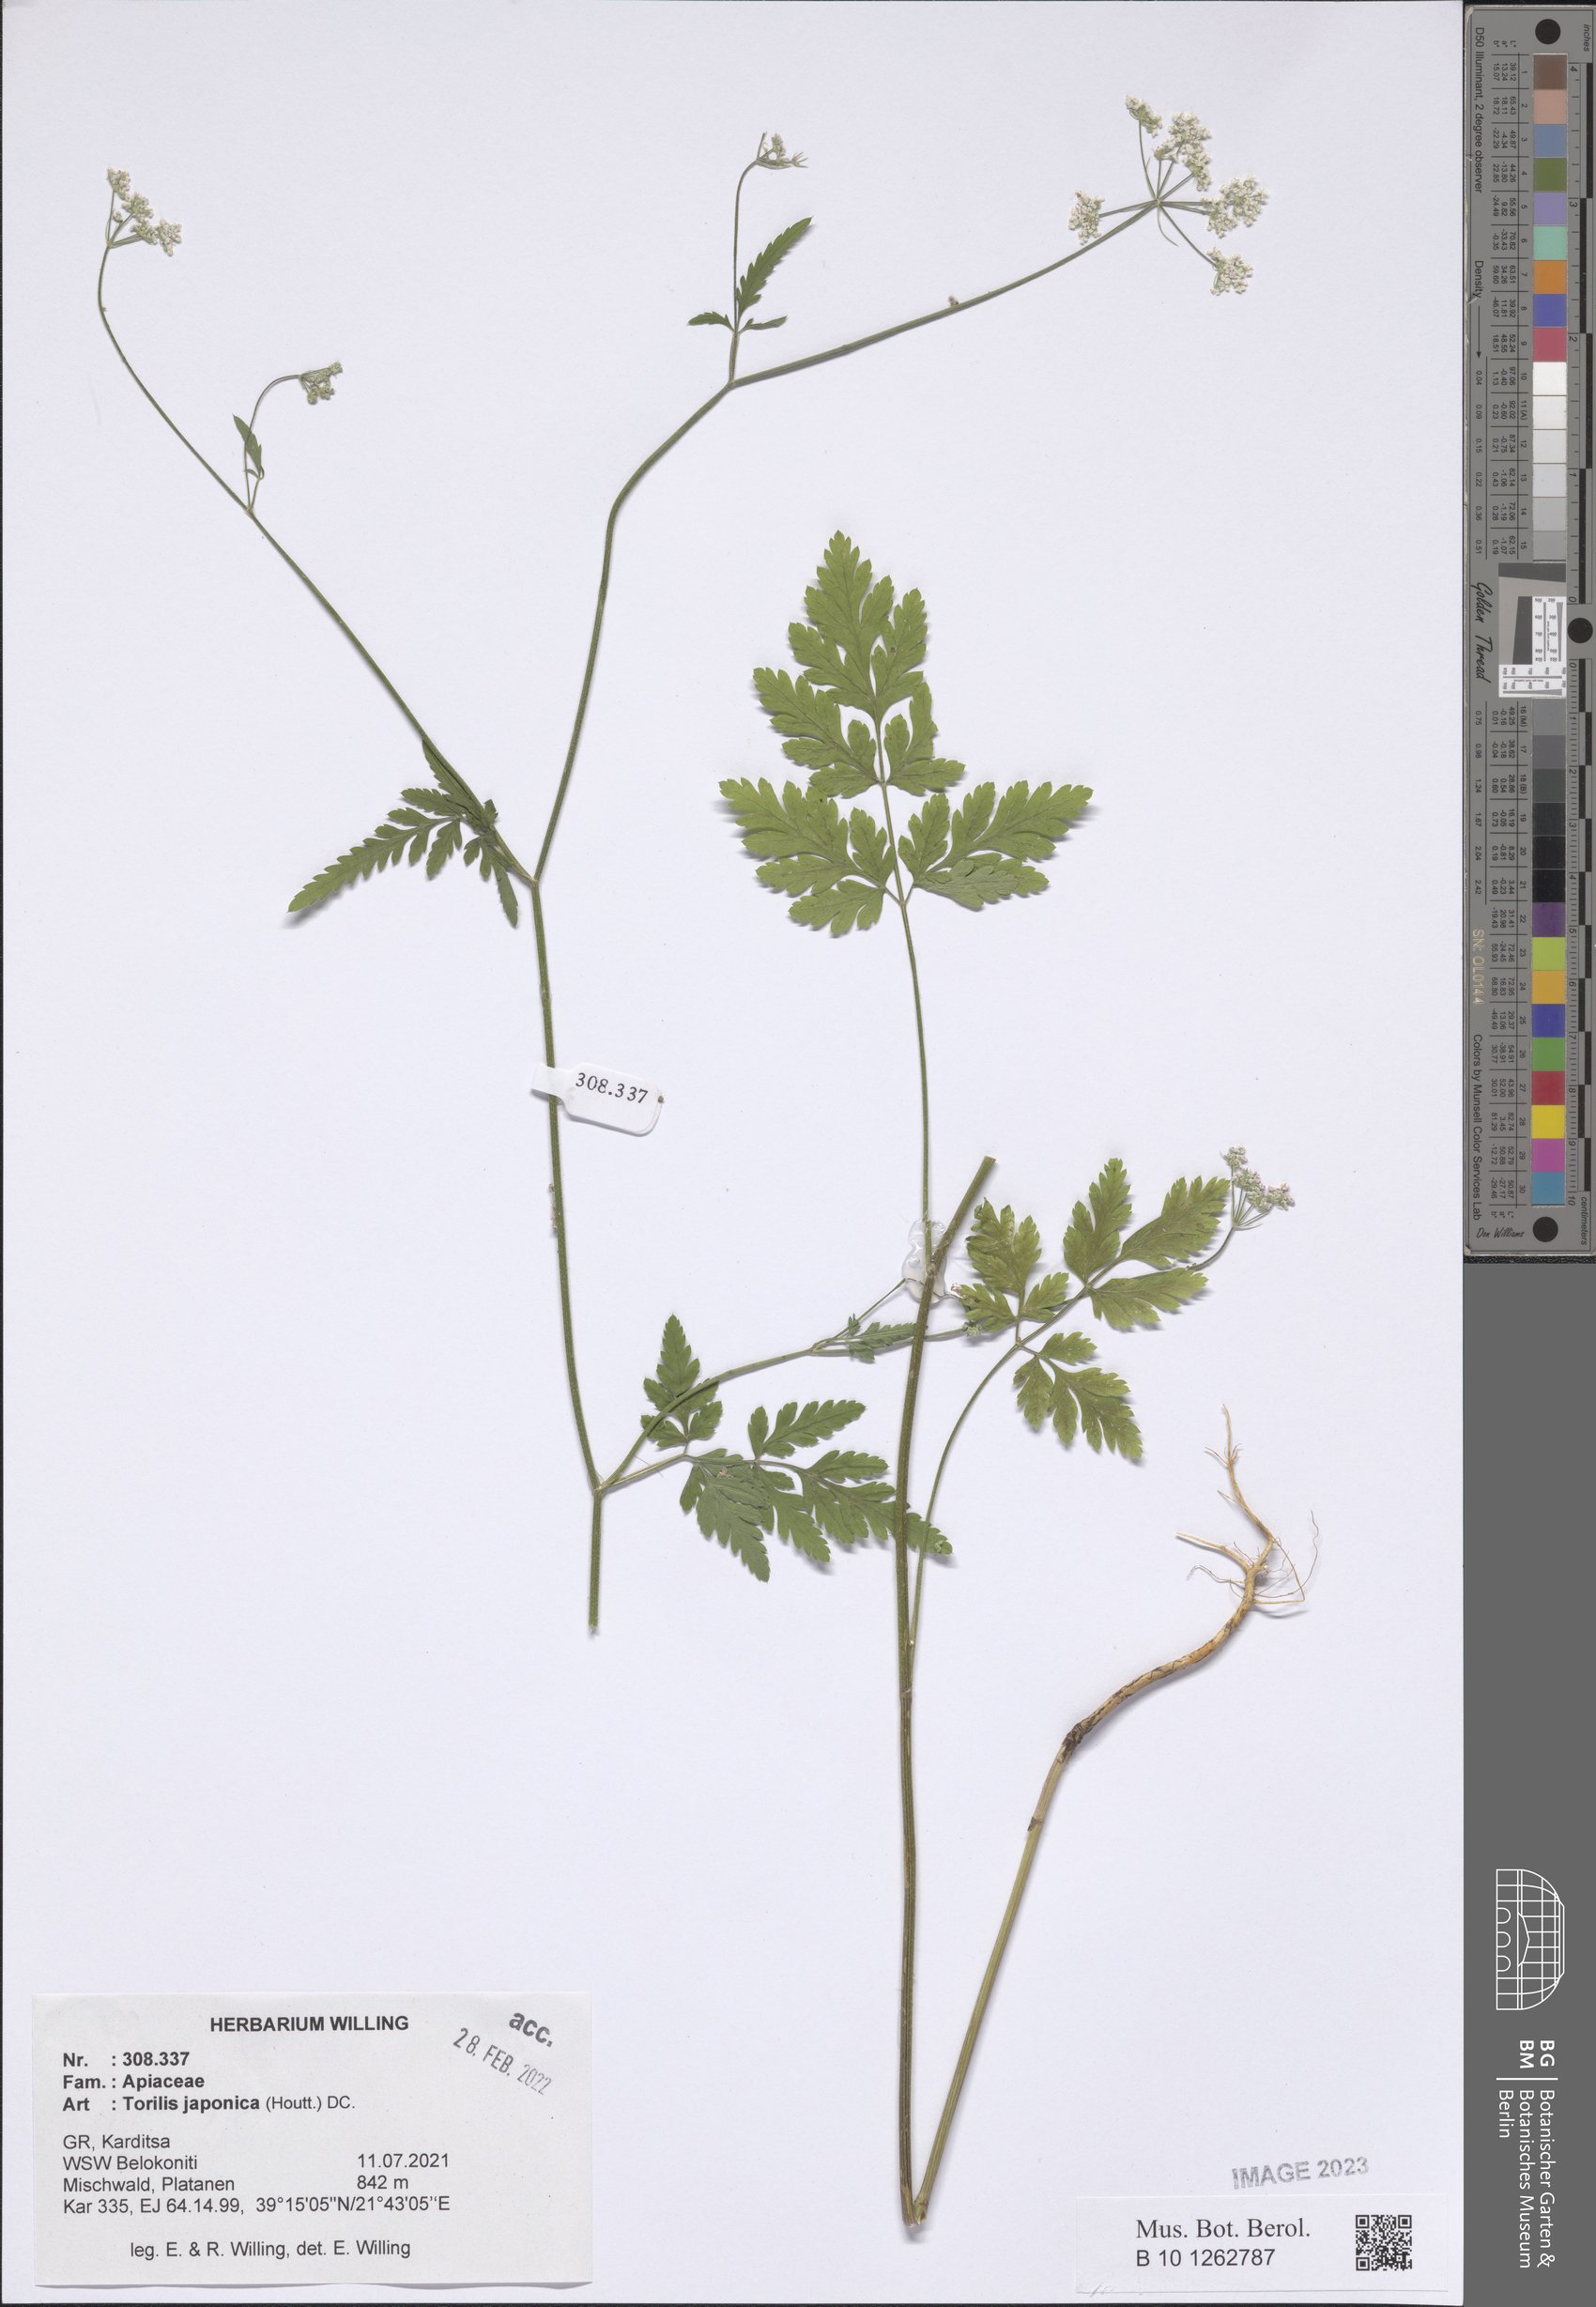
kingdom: Plantae
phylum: Tracheophyta
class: Magnoliopsida
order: Apiales
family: Apiaceae
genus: Torilis
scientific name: Torilis japonica
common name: Upright hedge-parsley
